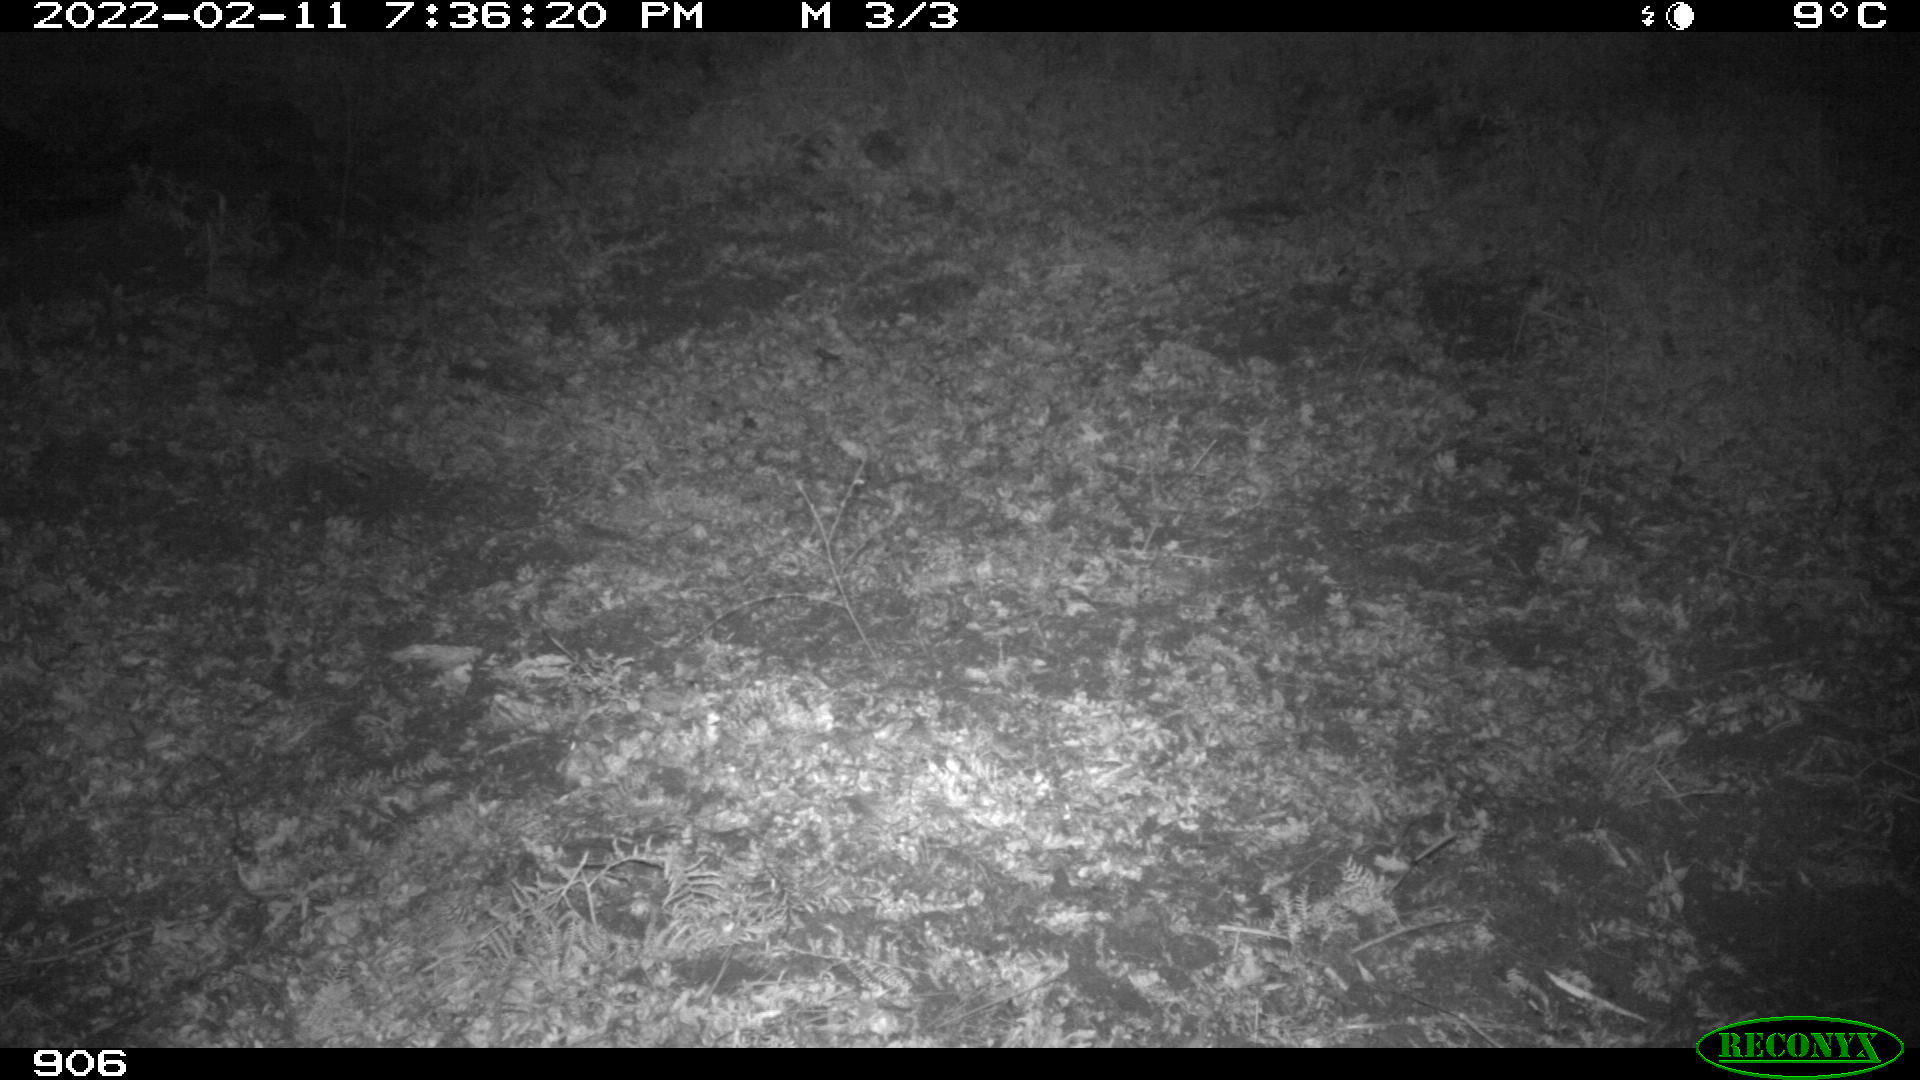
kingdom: Animalia
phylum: Chordata
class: Mammalia
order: Artiodactyla
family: Suidae
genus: Sus
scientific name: Sus scrofa
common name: Wild boar
